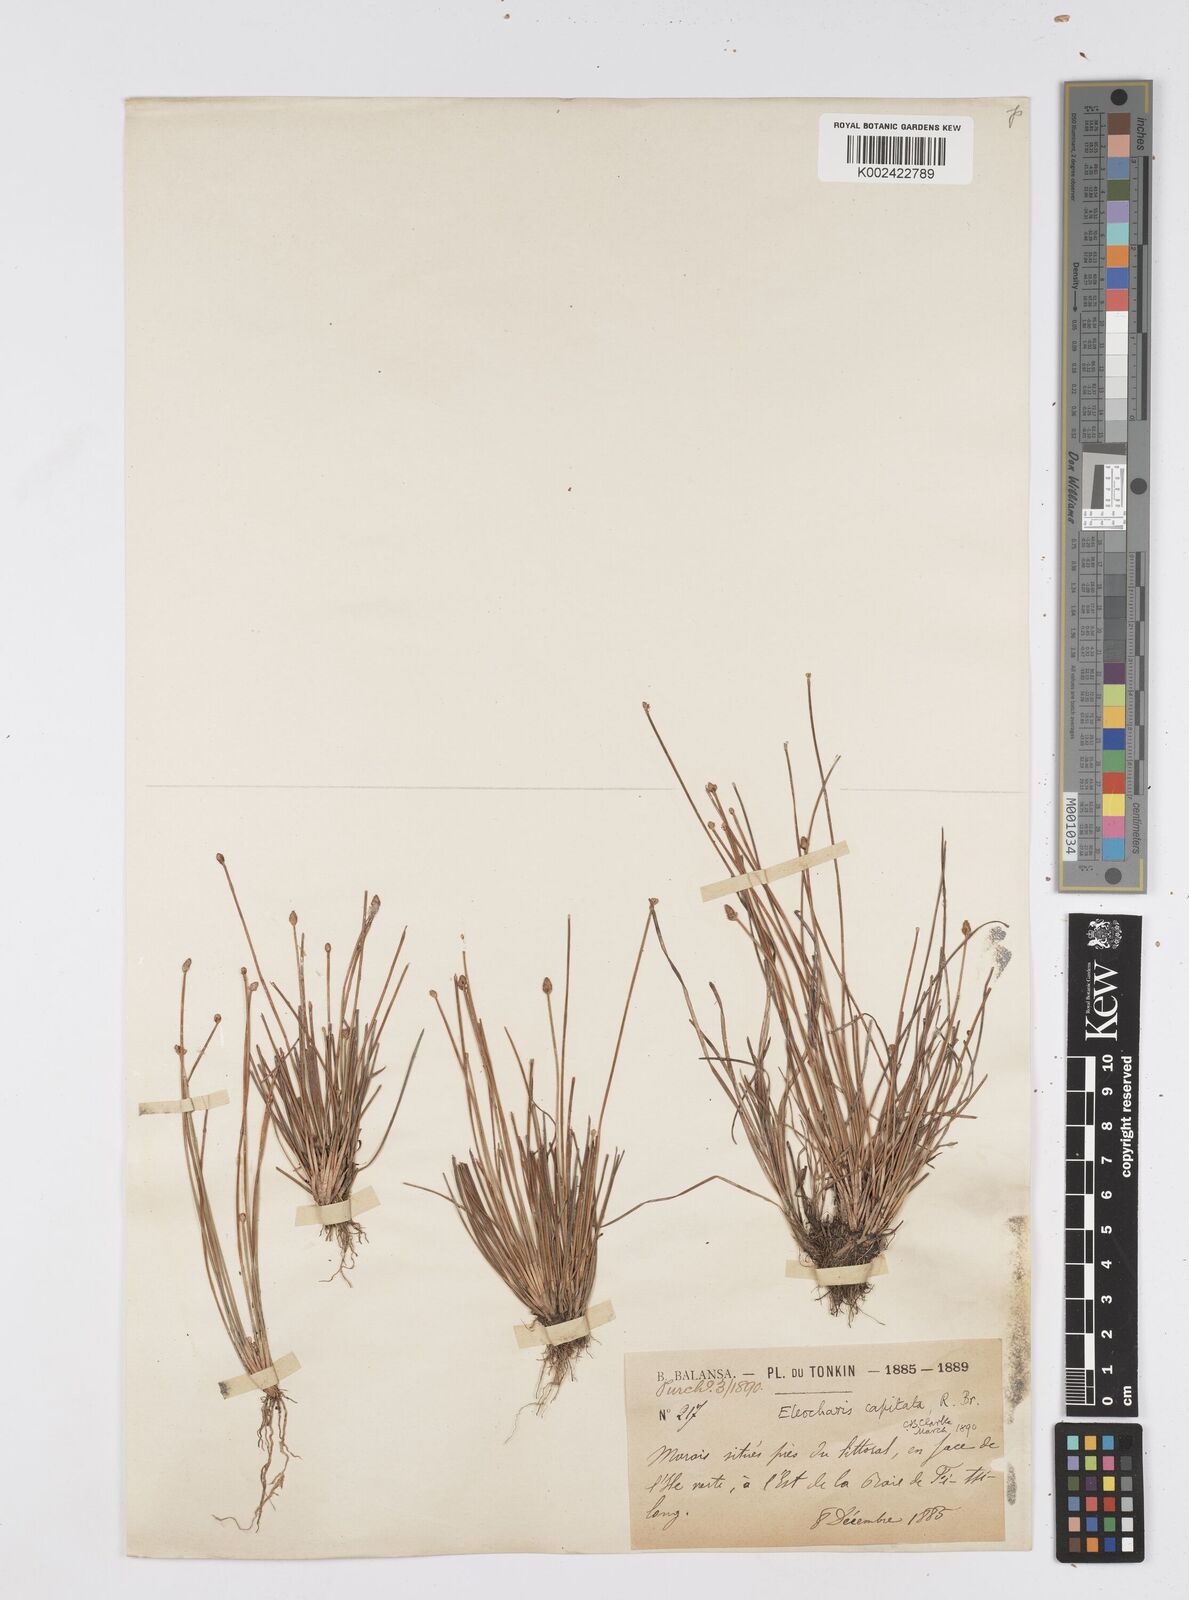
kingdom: Plantae
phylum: Tracheophyta
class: Liliopsida
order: Poales
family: Cyperaceae
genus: Eleocharis
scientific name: Eleocharis geniculata
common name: Canada spikesedge
